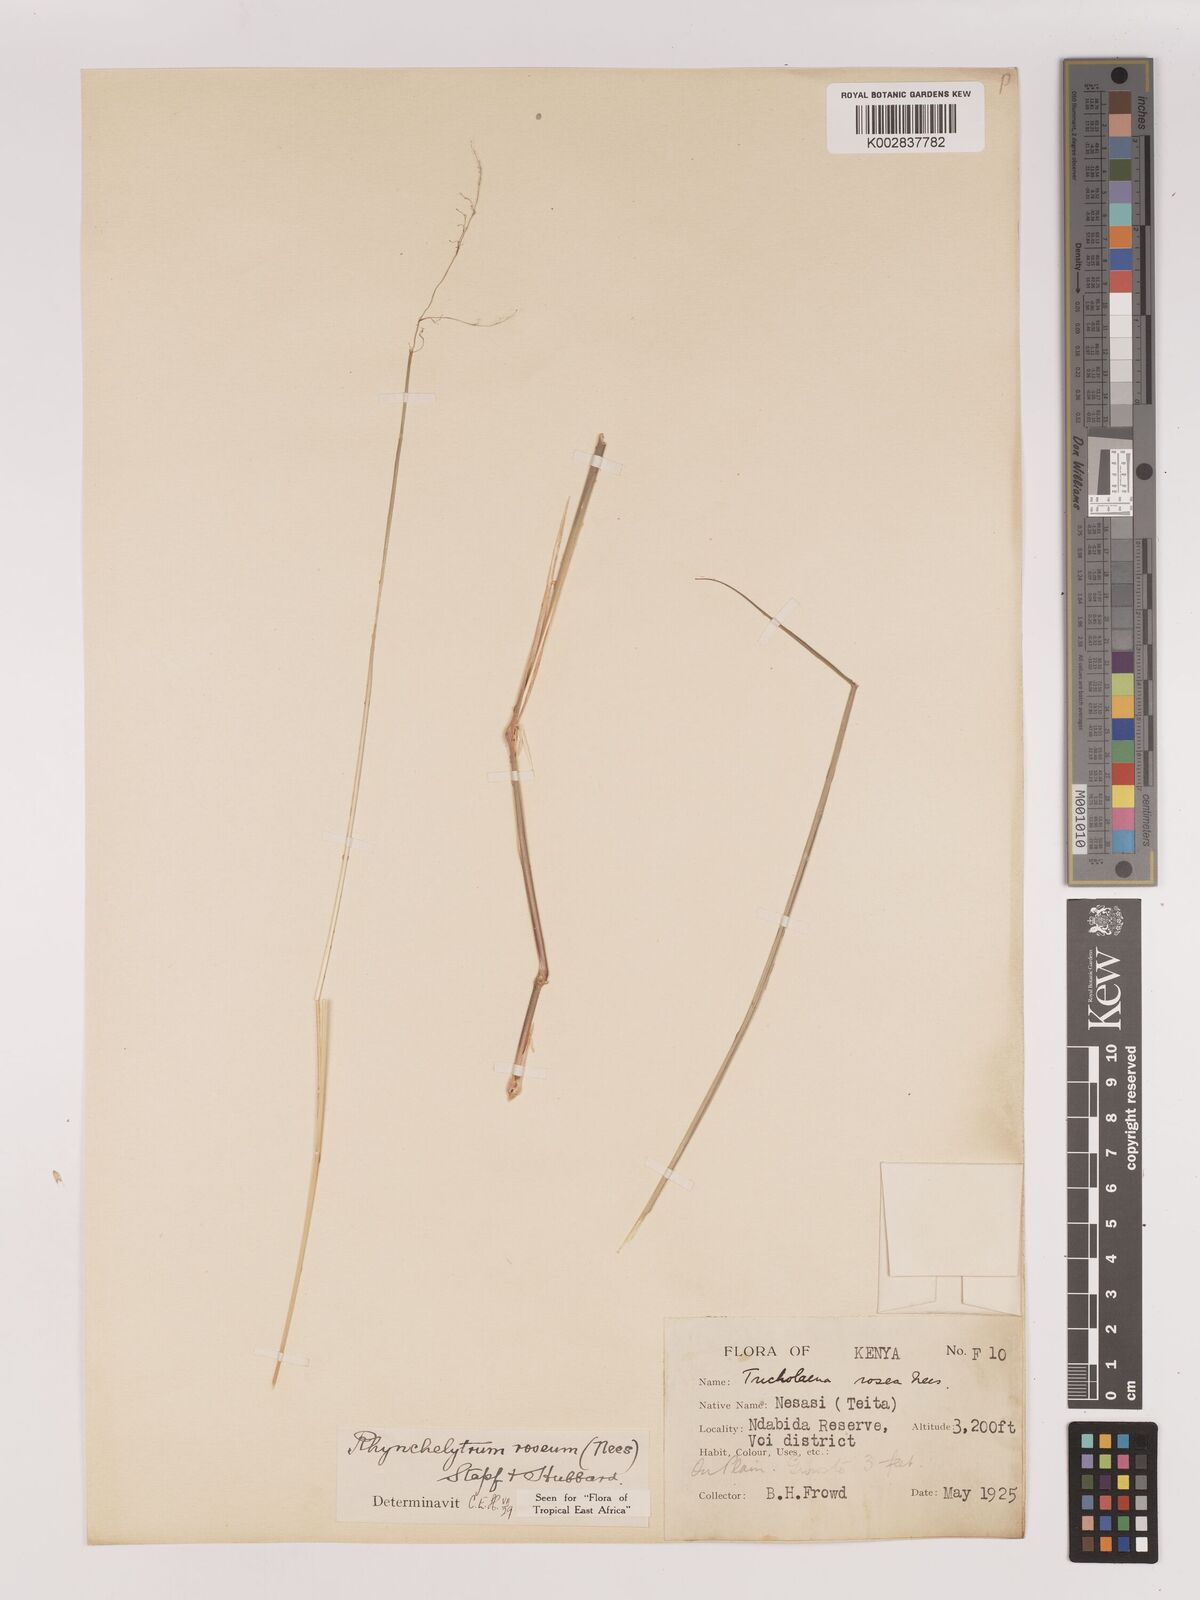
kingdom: Plantae
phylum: Tracheophyta
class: Liliopsida
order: Poales
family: Poaceae
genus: Melinis
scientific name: Melinis repens
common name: Rose natal grass
